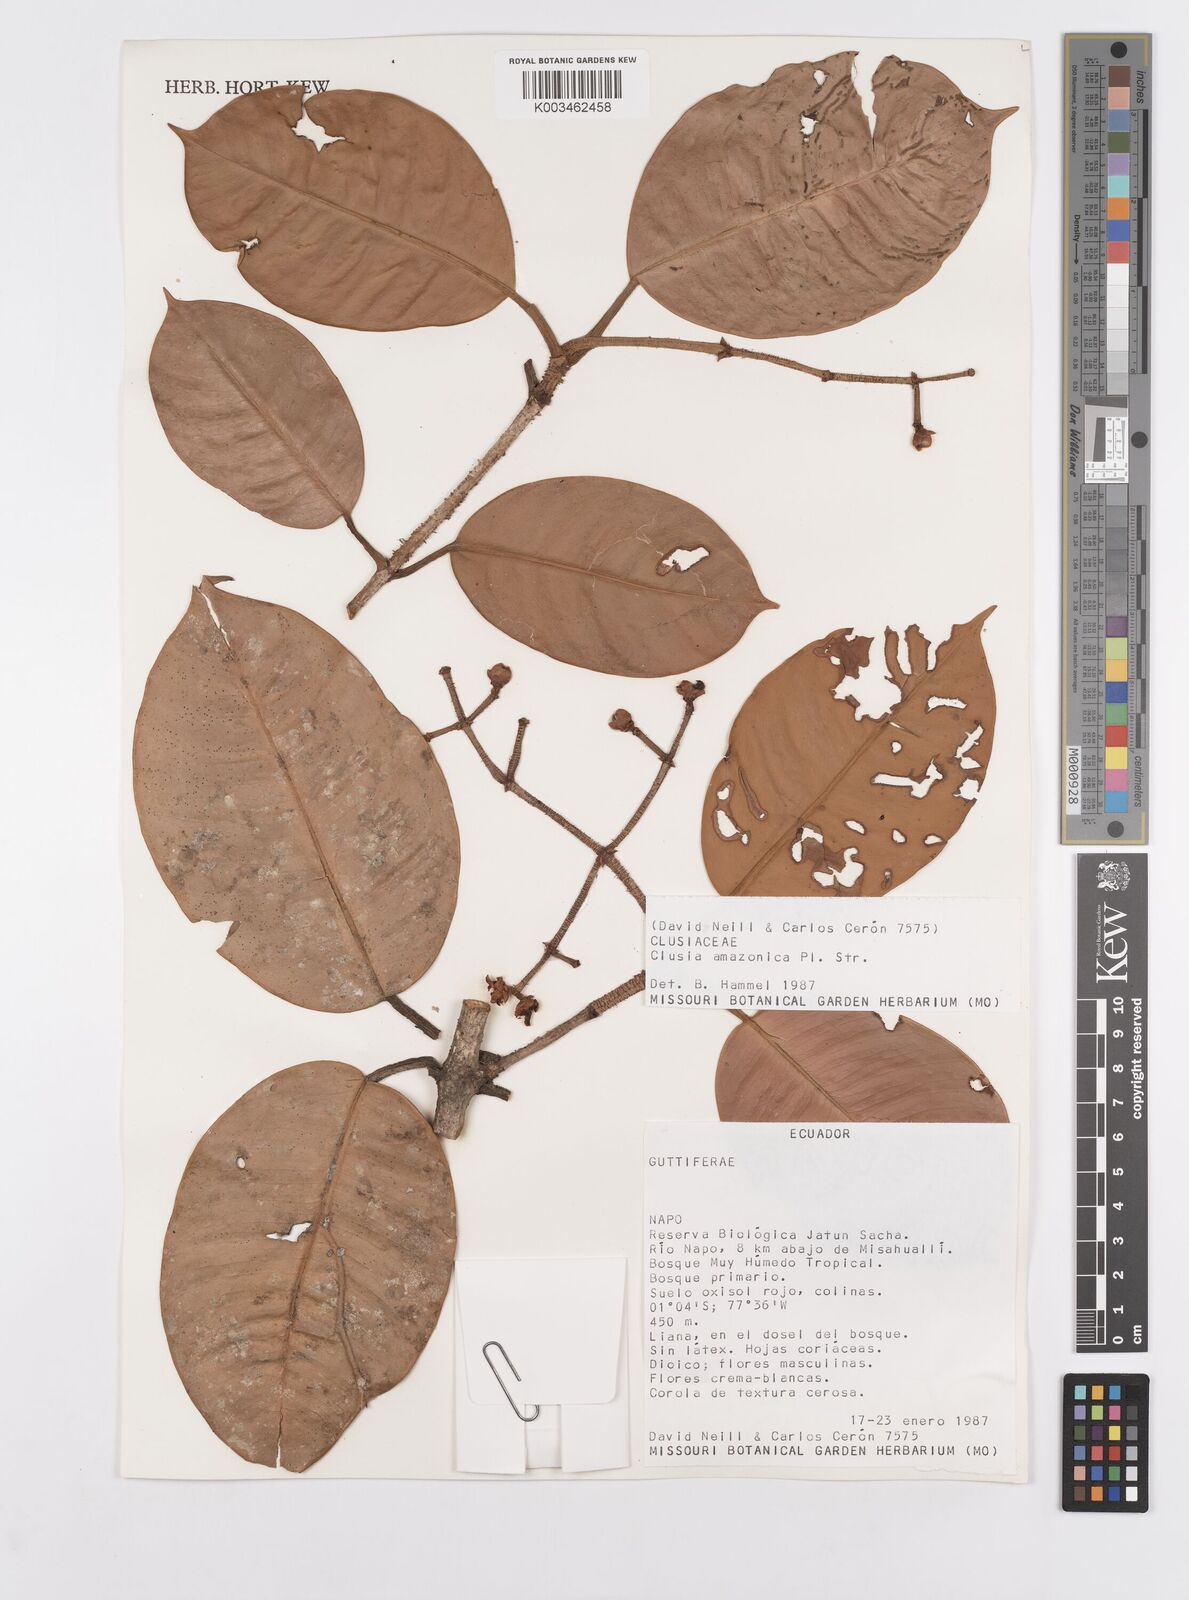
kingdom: Plantae
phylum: Tracheophyta
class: Magnoliopsida
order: Malpighiales
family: Clusiaceae
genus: Clusia
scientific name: Clusia amazonica
